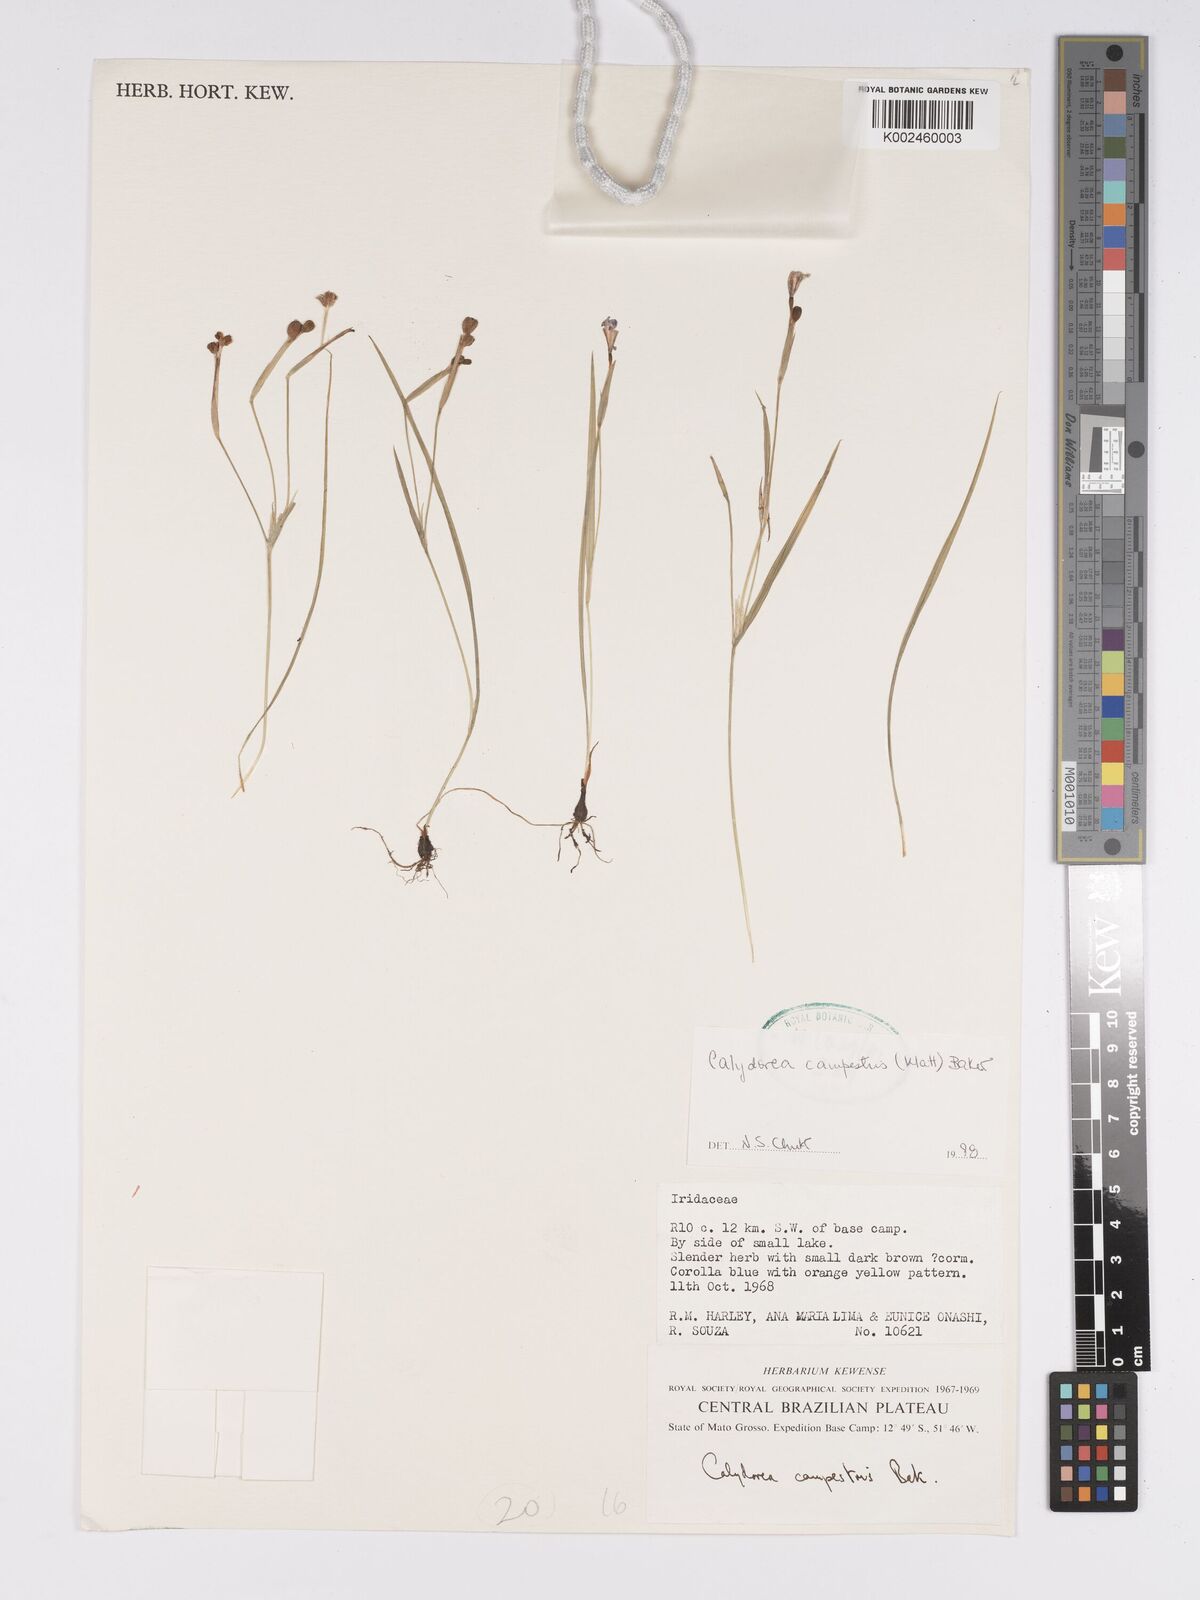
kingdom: Plantae
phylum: Tracheophyta
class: Liliopsida
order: Asparagales
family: Iridaceae
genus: Calydorea
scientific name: Calydorea campestris
